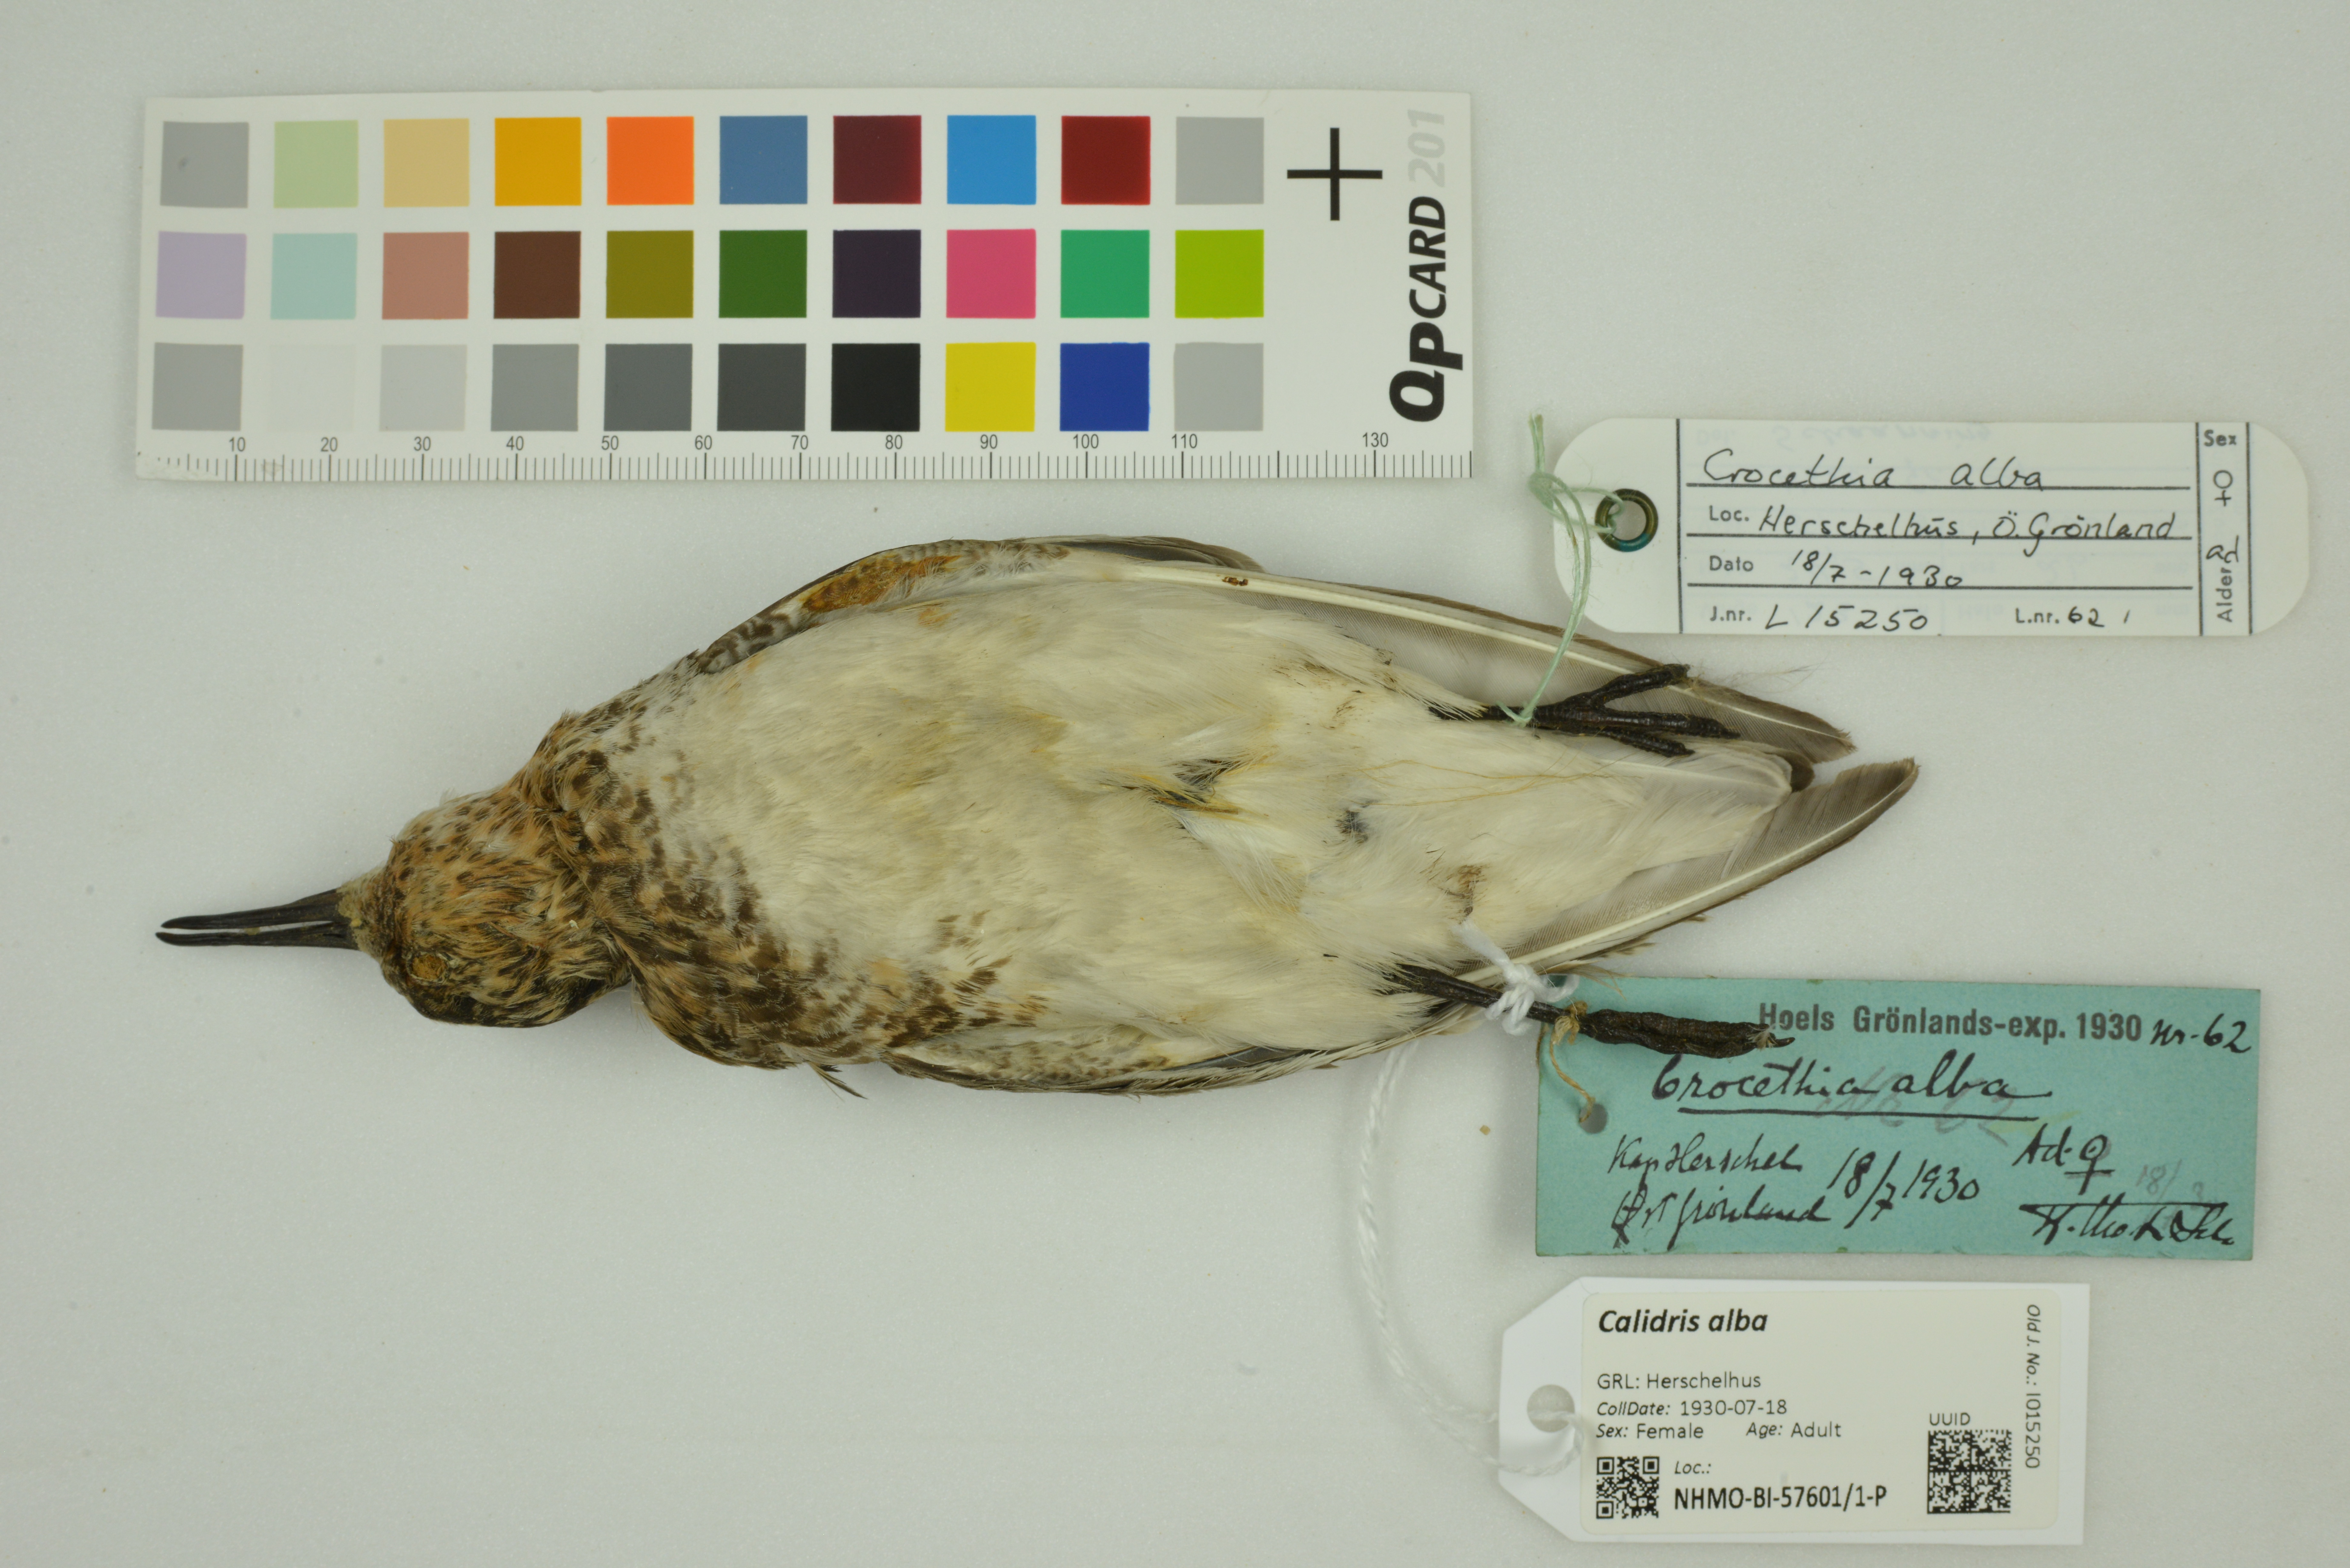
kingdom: Animalia
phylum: Chordata
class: Aves
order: Charadriiformes
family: Scolopacidae
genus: Calidris
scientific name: Calidris alba
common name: Sanderling
